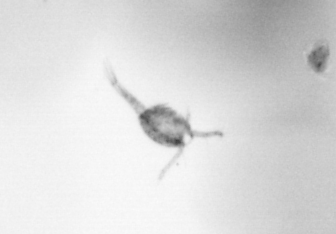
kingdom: Animalia
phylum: Arthropoda
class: Copepoda
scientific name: Copepoda
